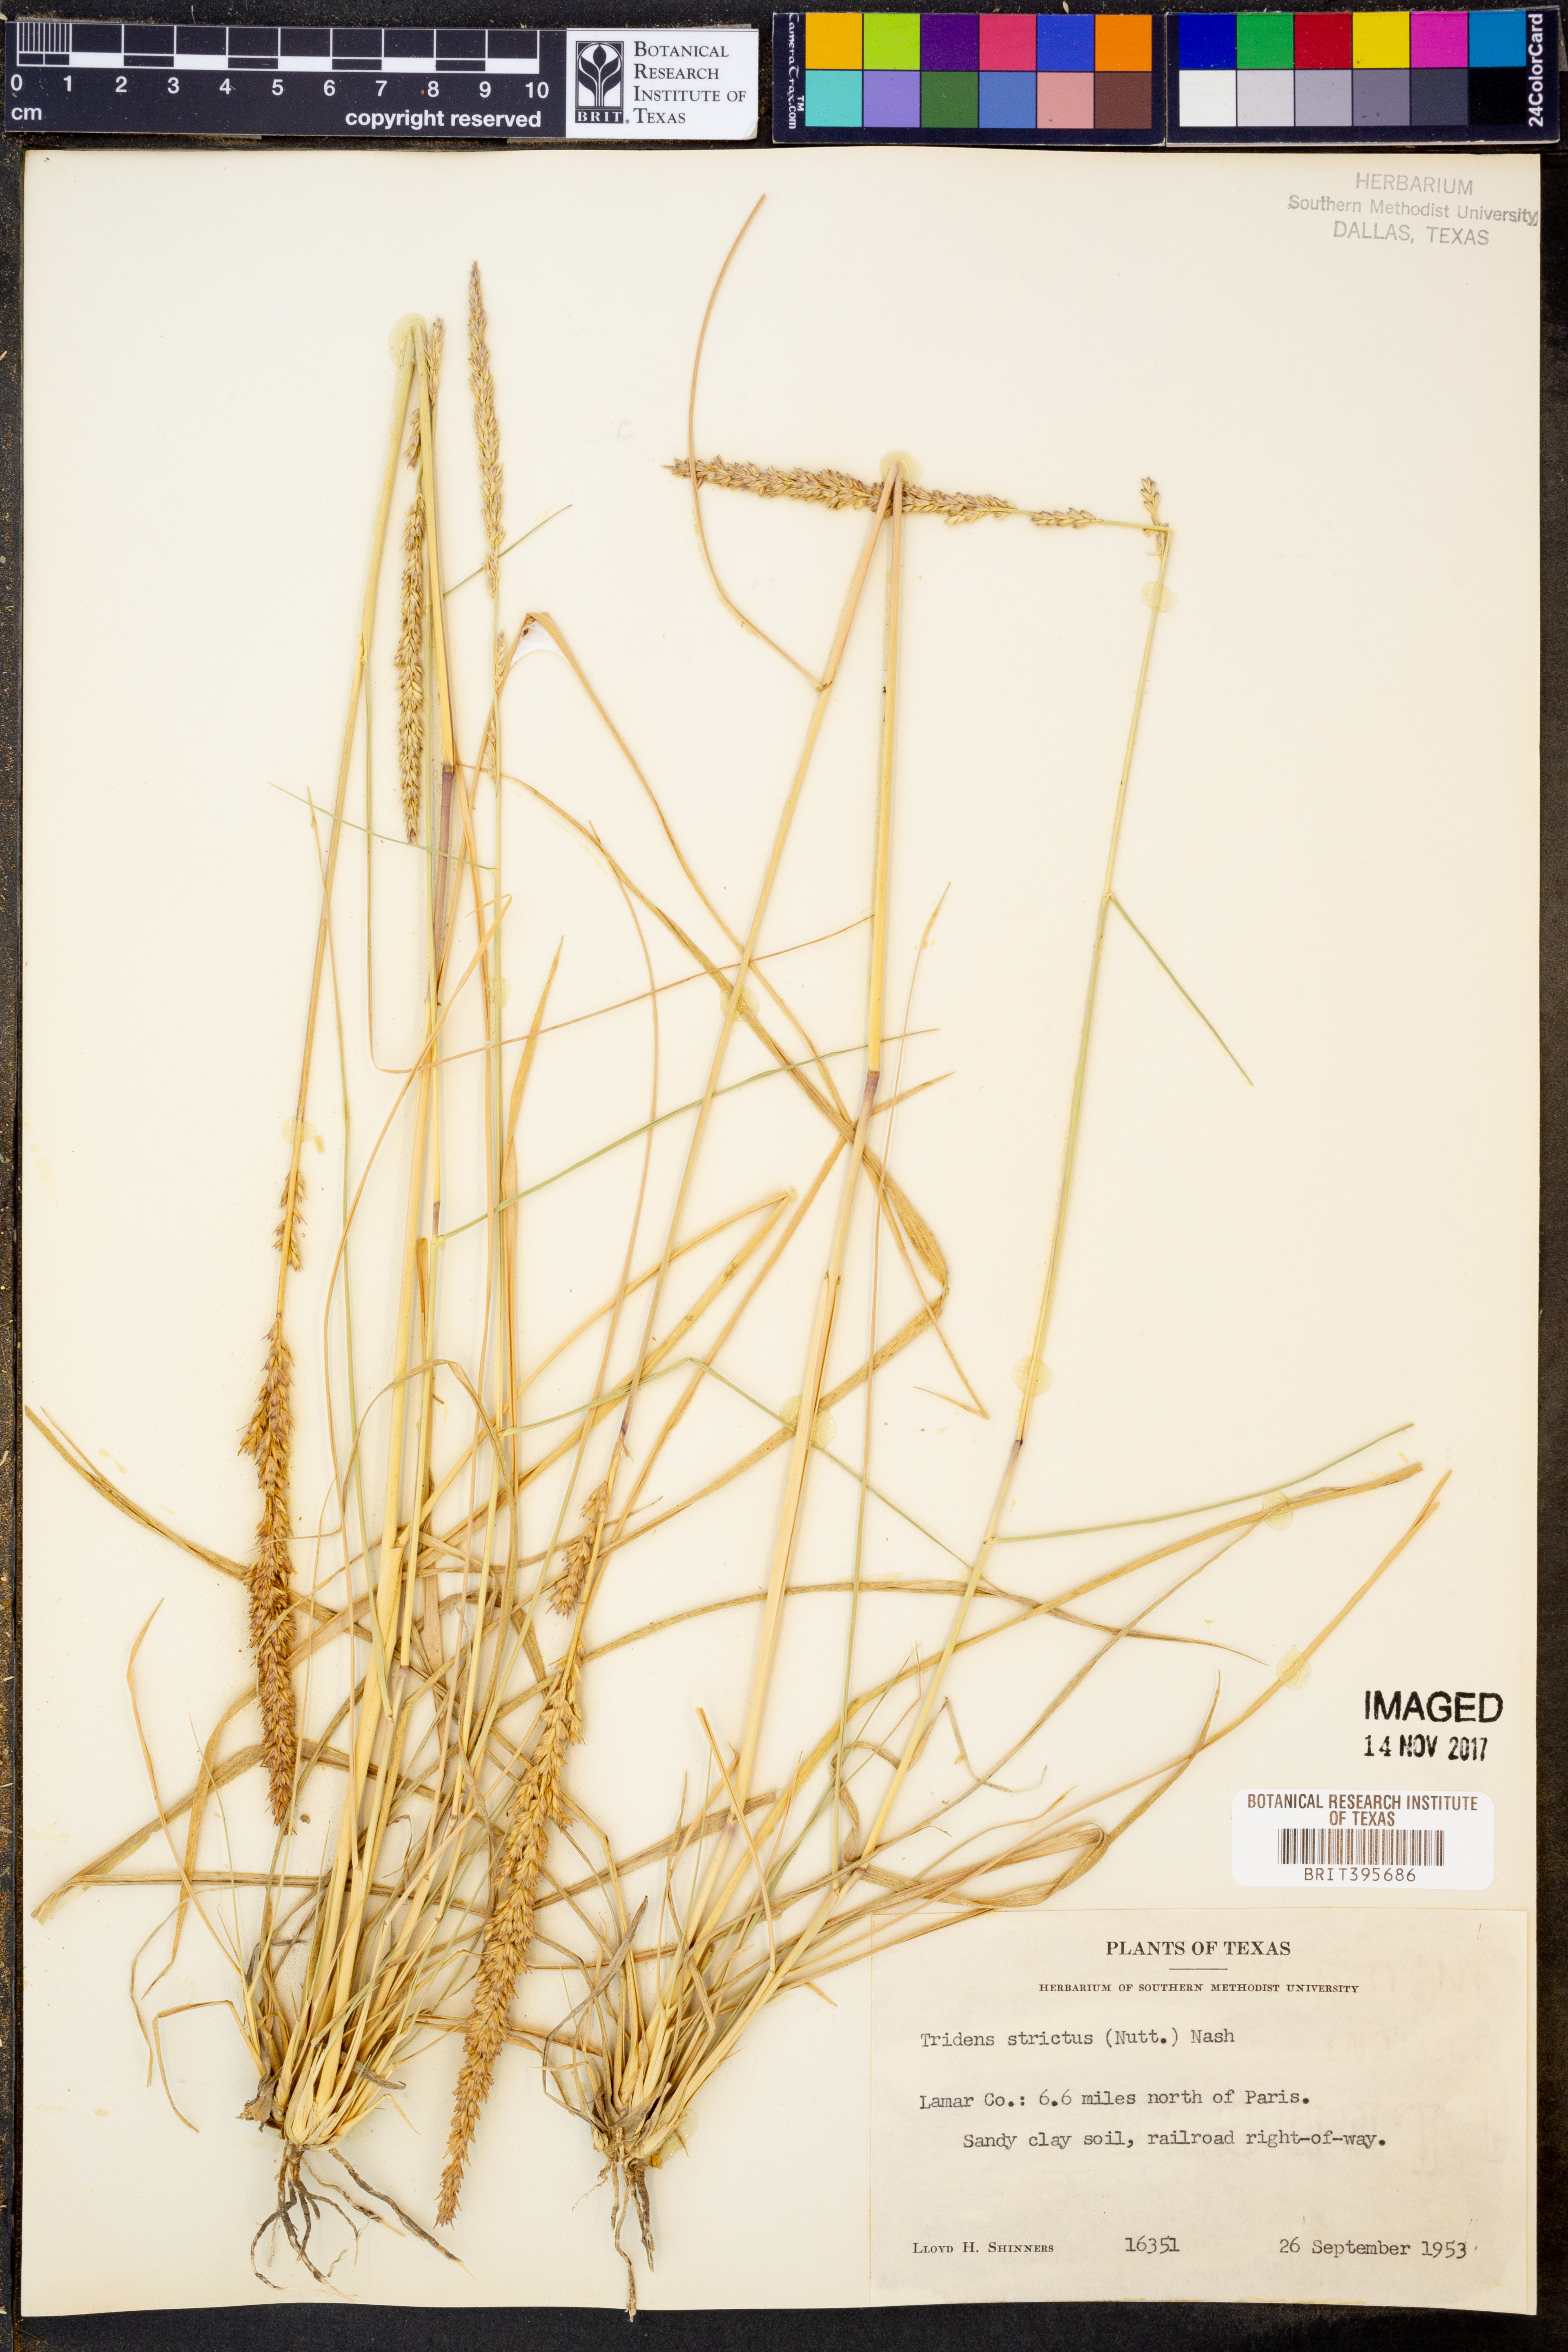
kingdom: Plantae
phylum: Tracheophyta
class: Liliopsida
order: Poales
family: Poaceae
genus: Tridens
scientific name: Tridens strictus
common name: Long-spike tridens
